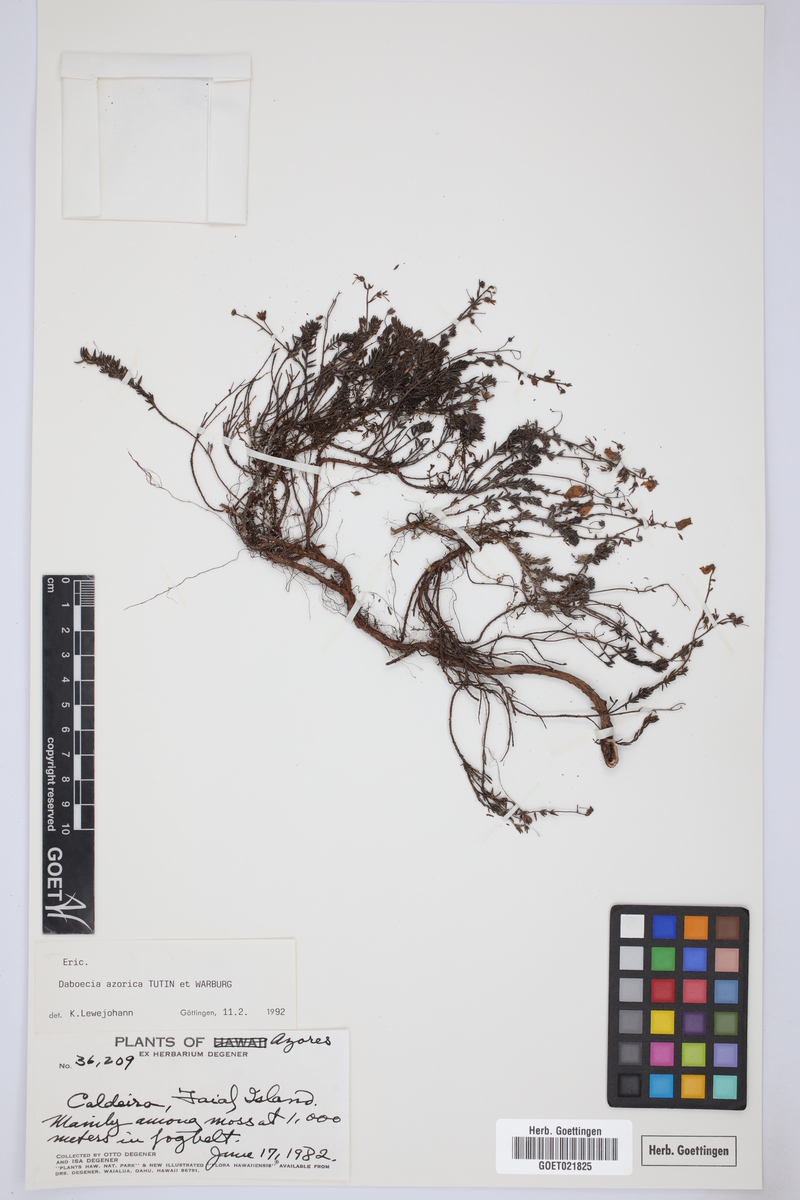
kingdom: Plantae
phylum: Tracheophyta
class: Magnoliopsida
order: Ericales
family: Ericaceae
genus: Daboecia
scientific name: Daboecia cantabrica
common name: St. dabeoc's-heath
